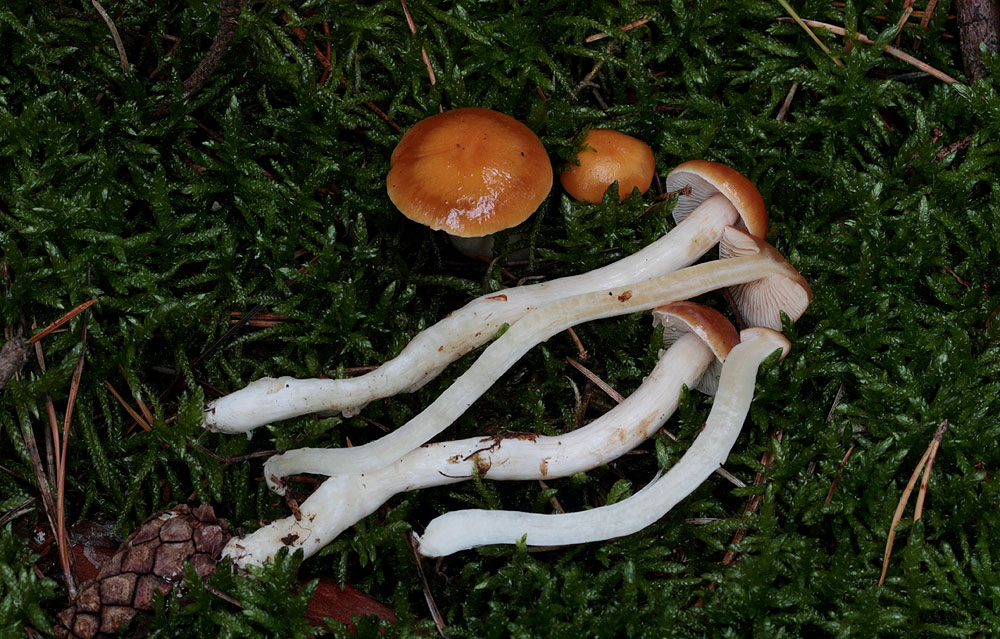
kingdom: Fungi
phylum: Basidiomycota
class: Agaricomycetes
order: Agaricales
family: Cortinariaceae
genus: Thaxterogaster
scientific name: Thaxterogaster pluvius
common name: hvidgul slørhat
